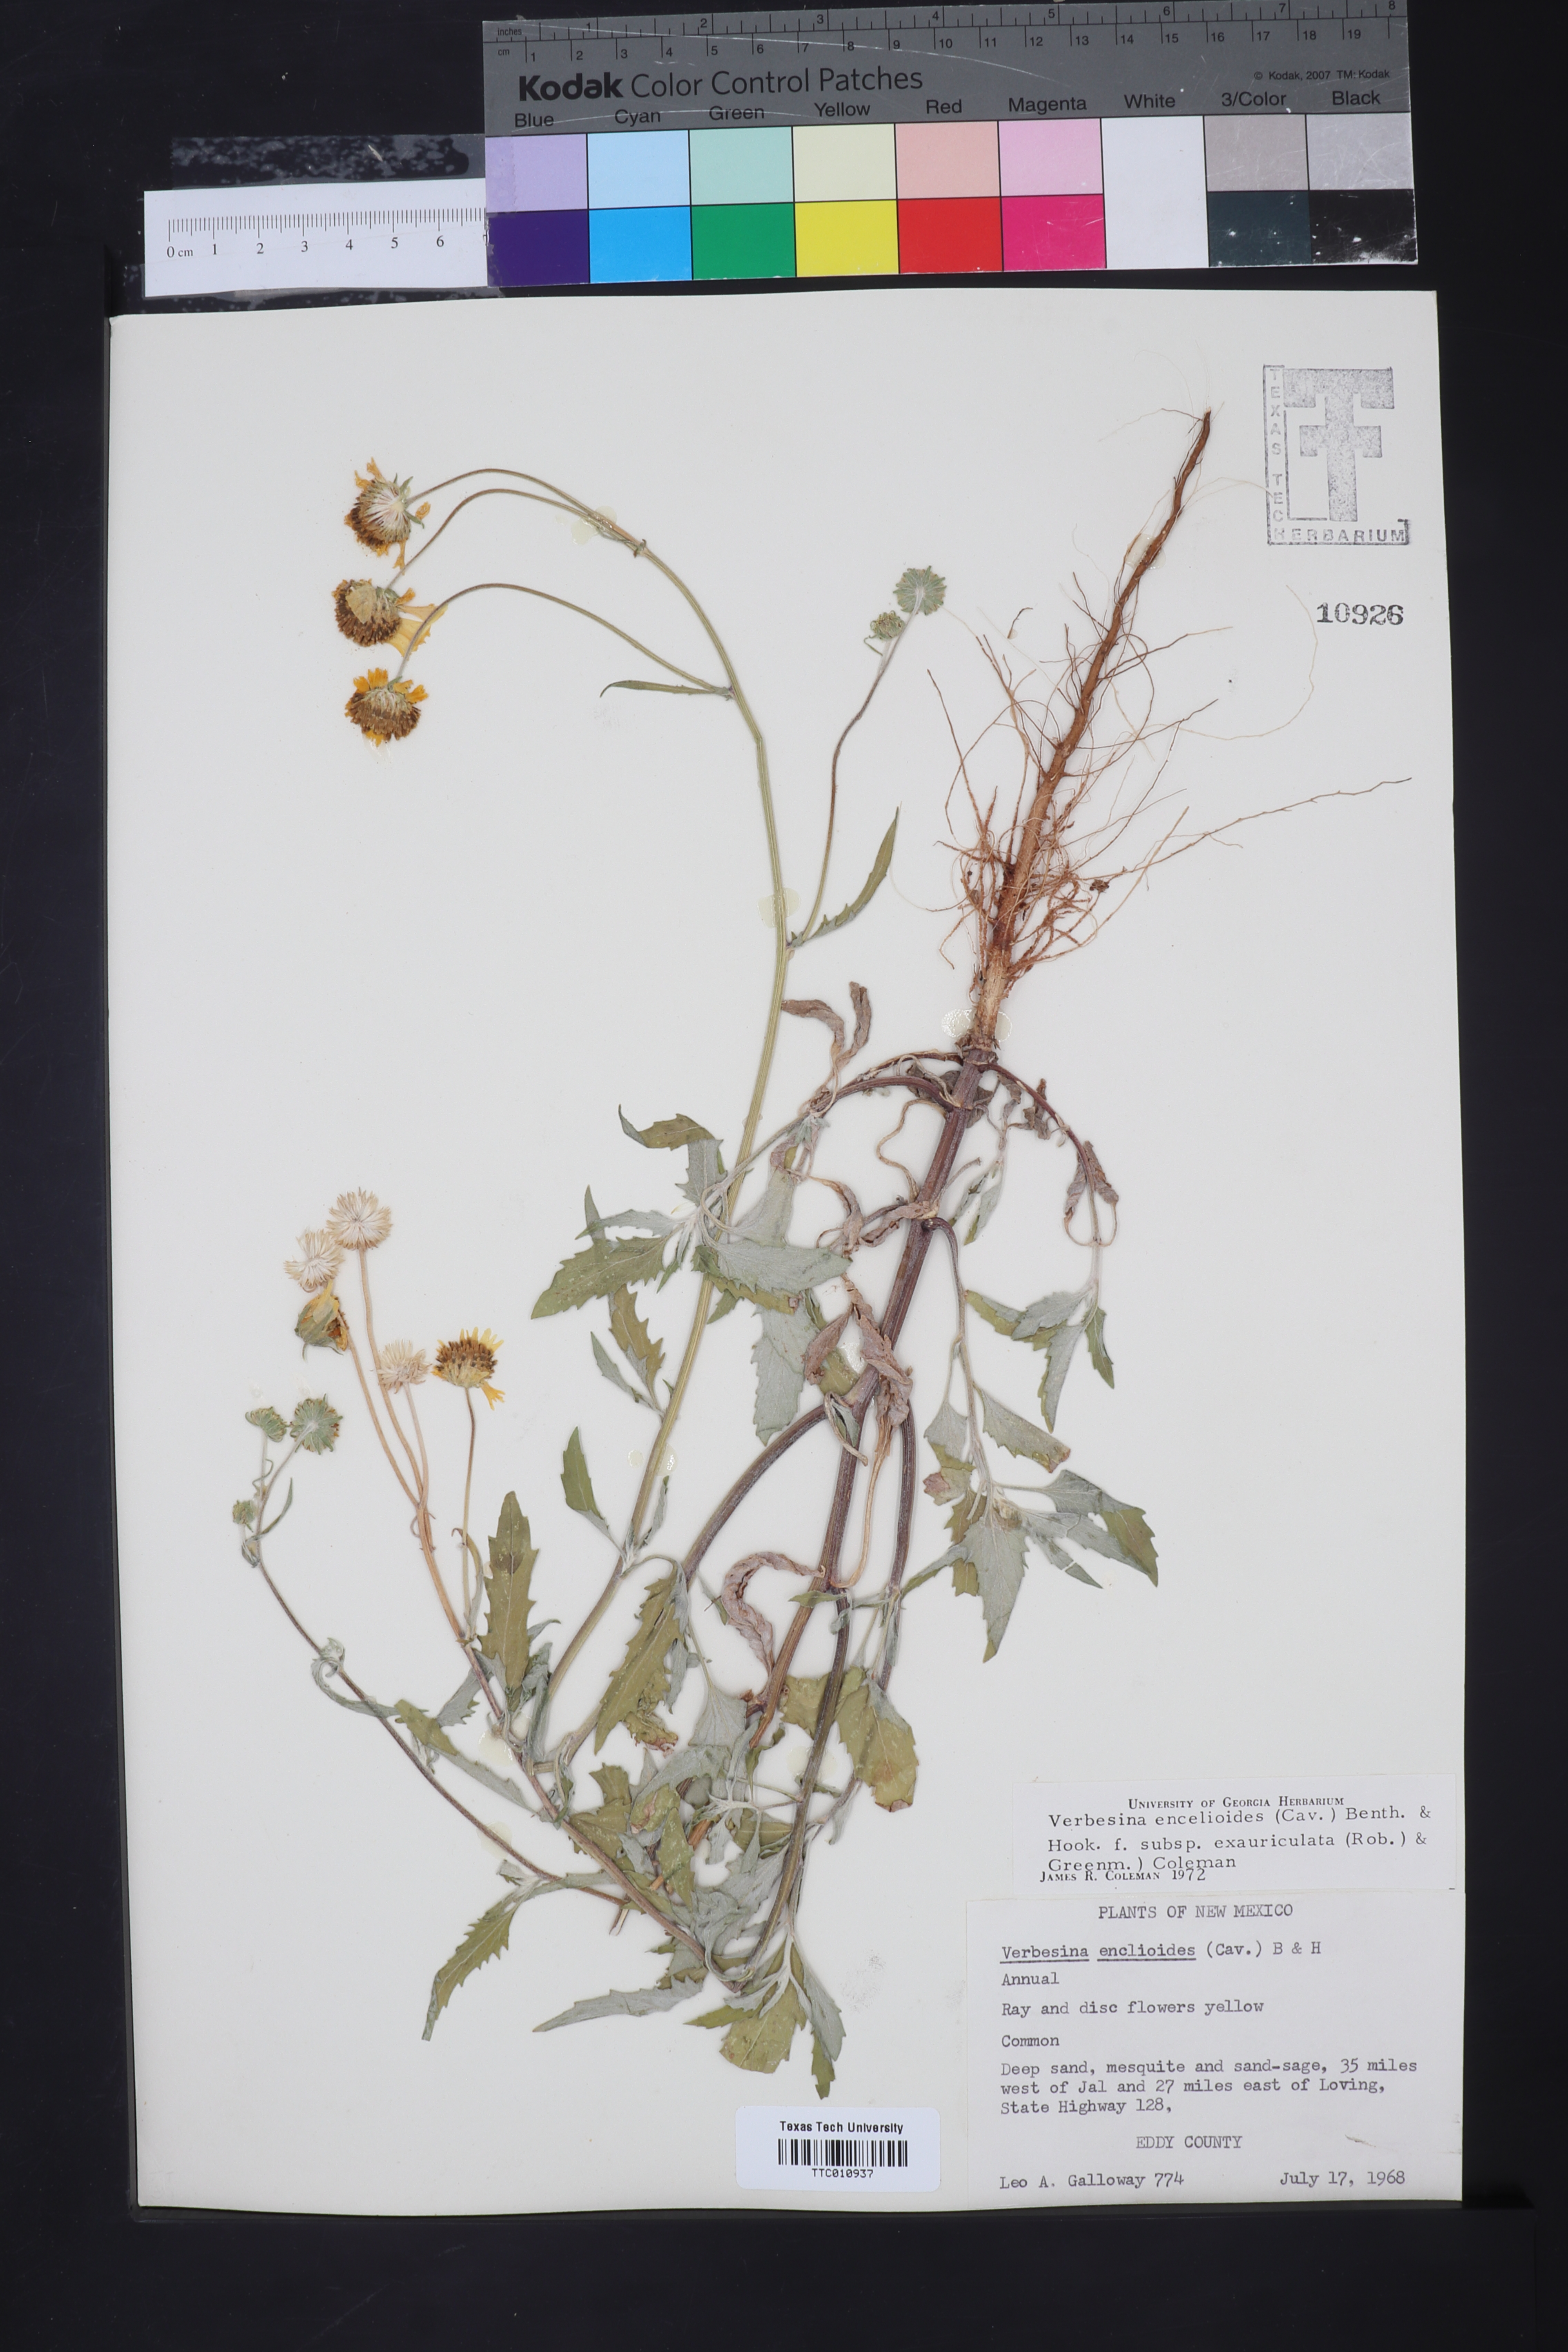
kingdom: Plantae
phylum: Tracheophyta
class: Magnoliopsida
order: Asterales
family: Asteraceae
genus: Verbesina
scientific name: Verbesina encelioides
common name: Golden crownbeard
